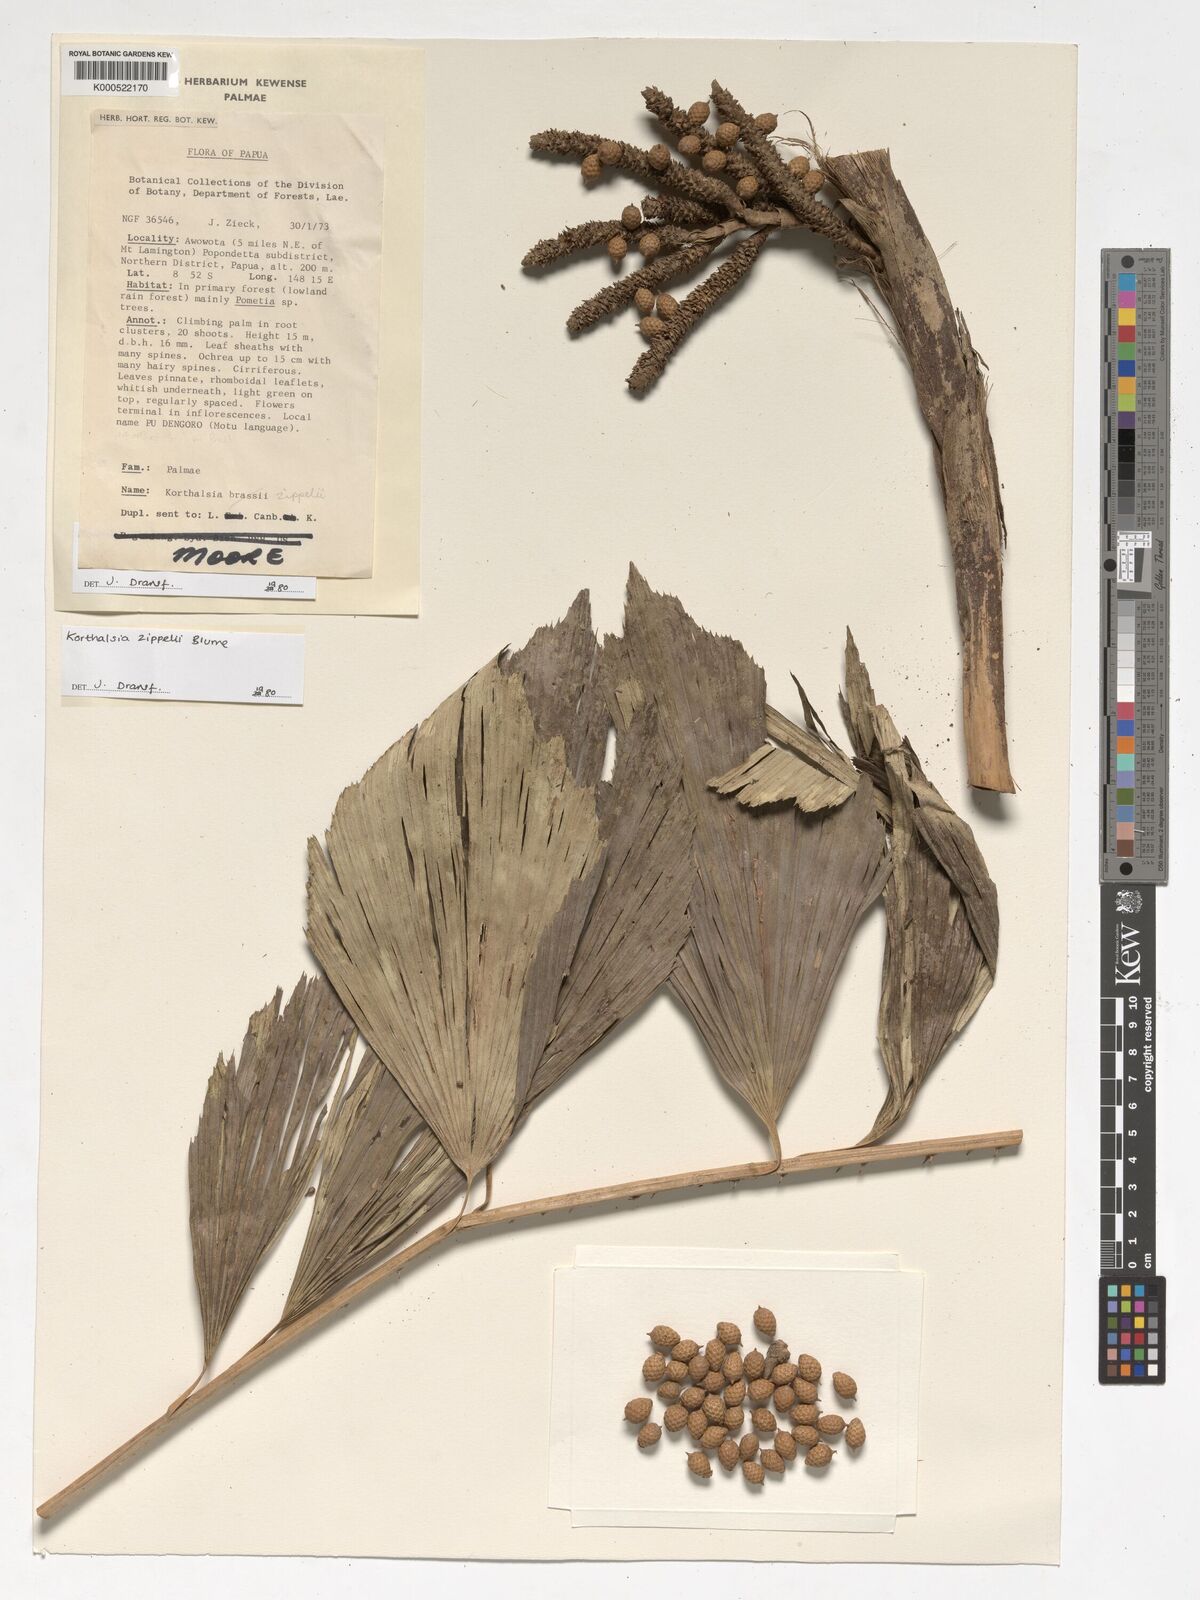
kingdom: Plantae
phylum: Tracheophyta
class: Liliopsida
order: Arecales
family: Arecaceae
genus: Korthalsia
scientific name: Korthalsia zippelii
